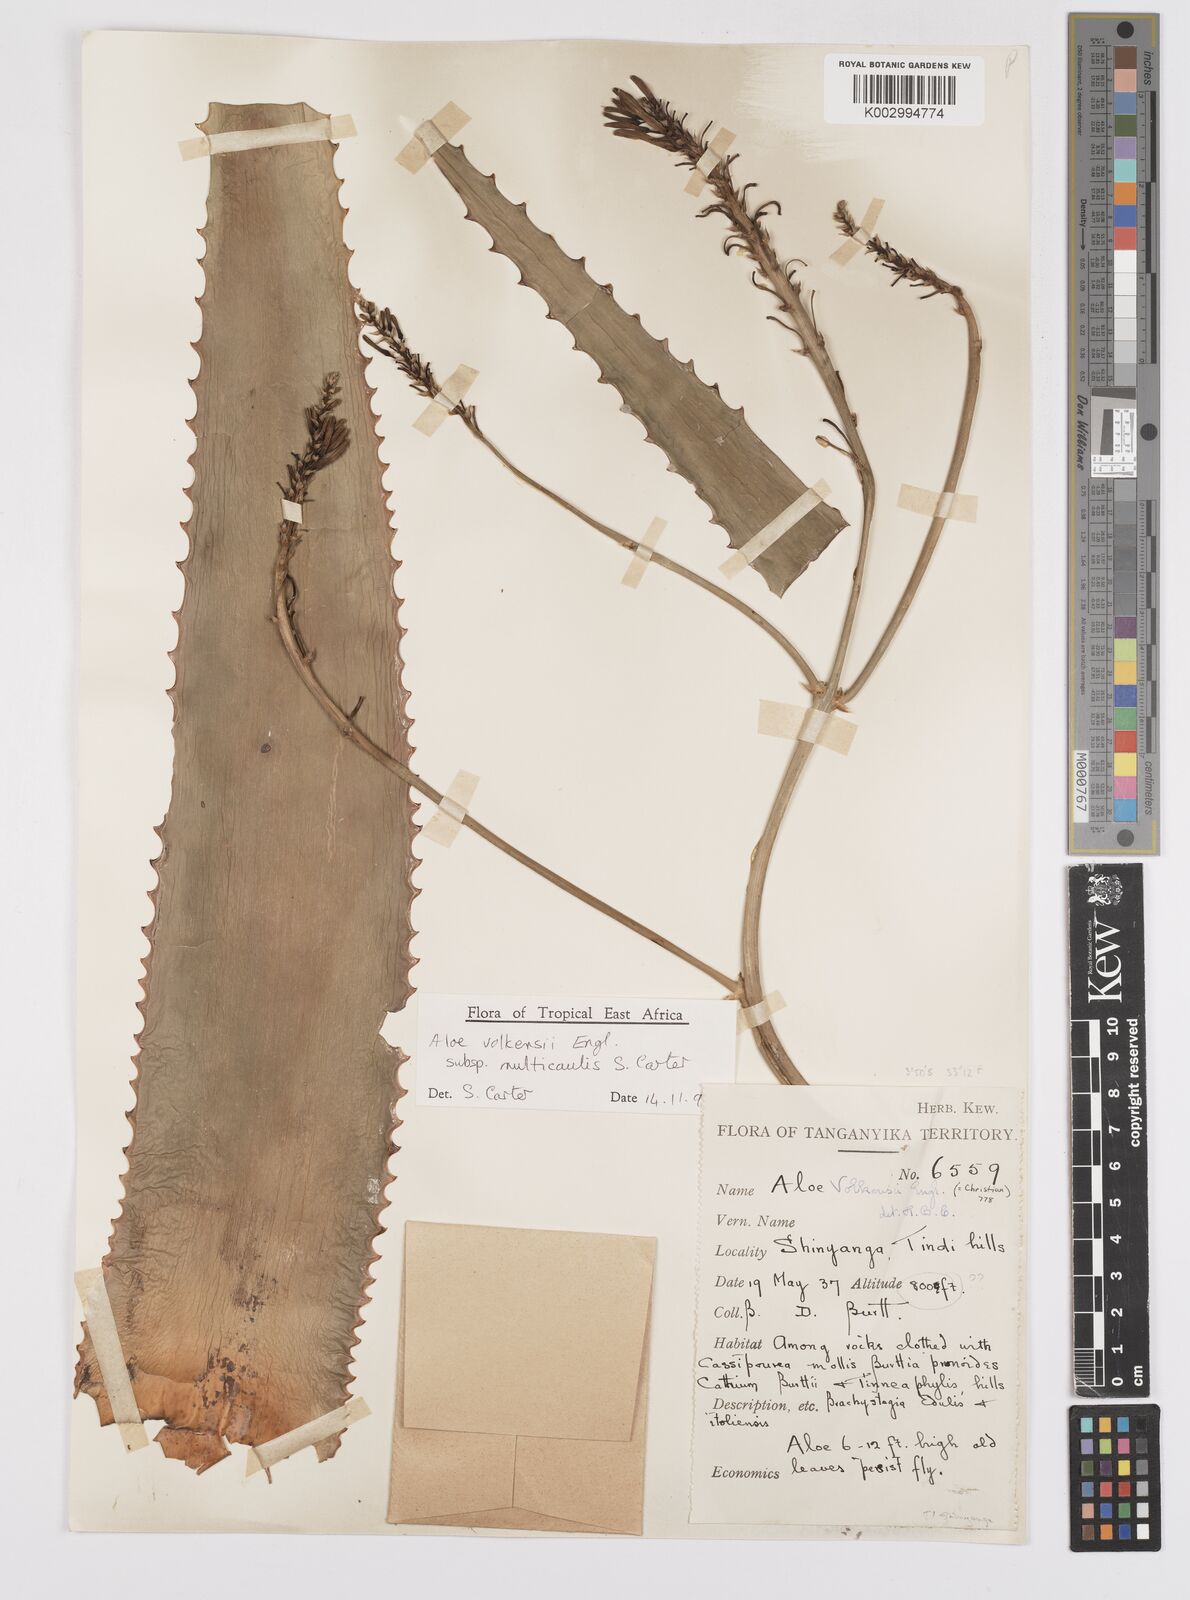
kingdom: Plantae
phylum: Tracheophyta
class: Liliopsida
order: Asparagales
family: Asphodelaceae
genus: Aloe
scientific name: Aloe volkensii
